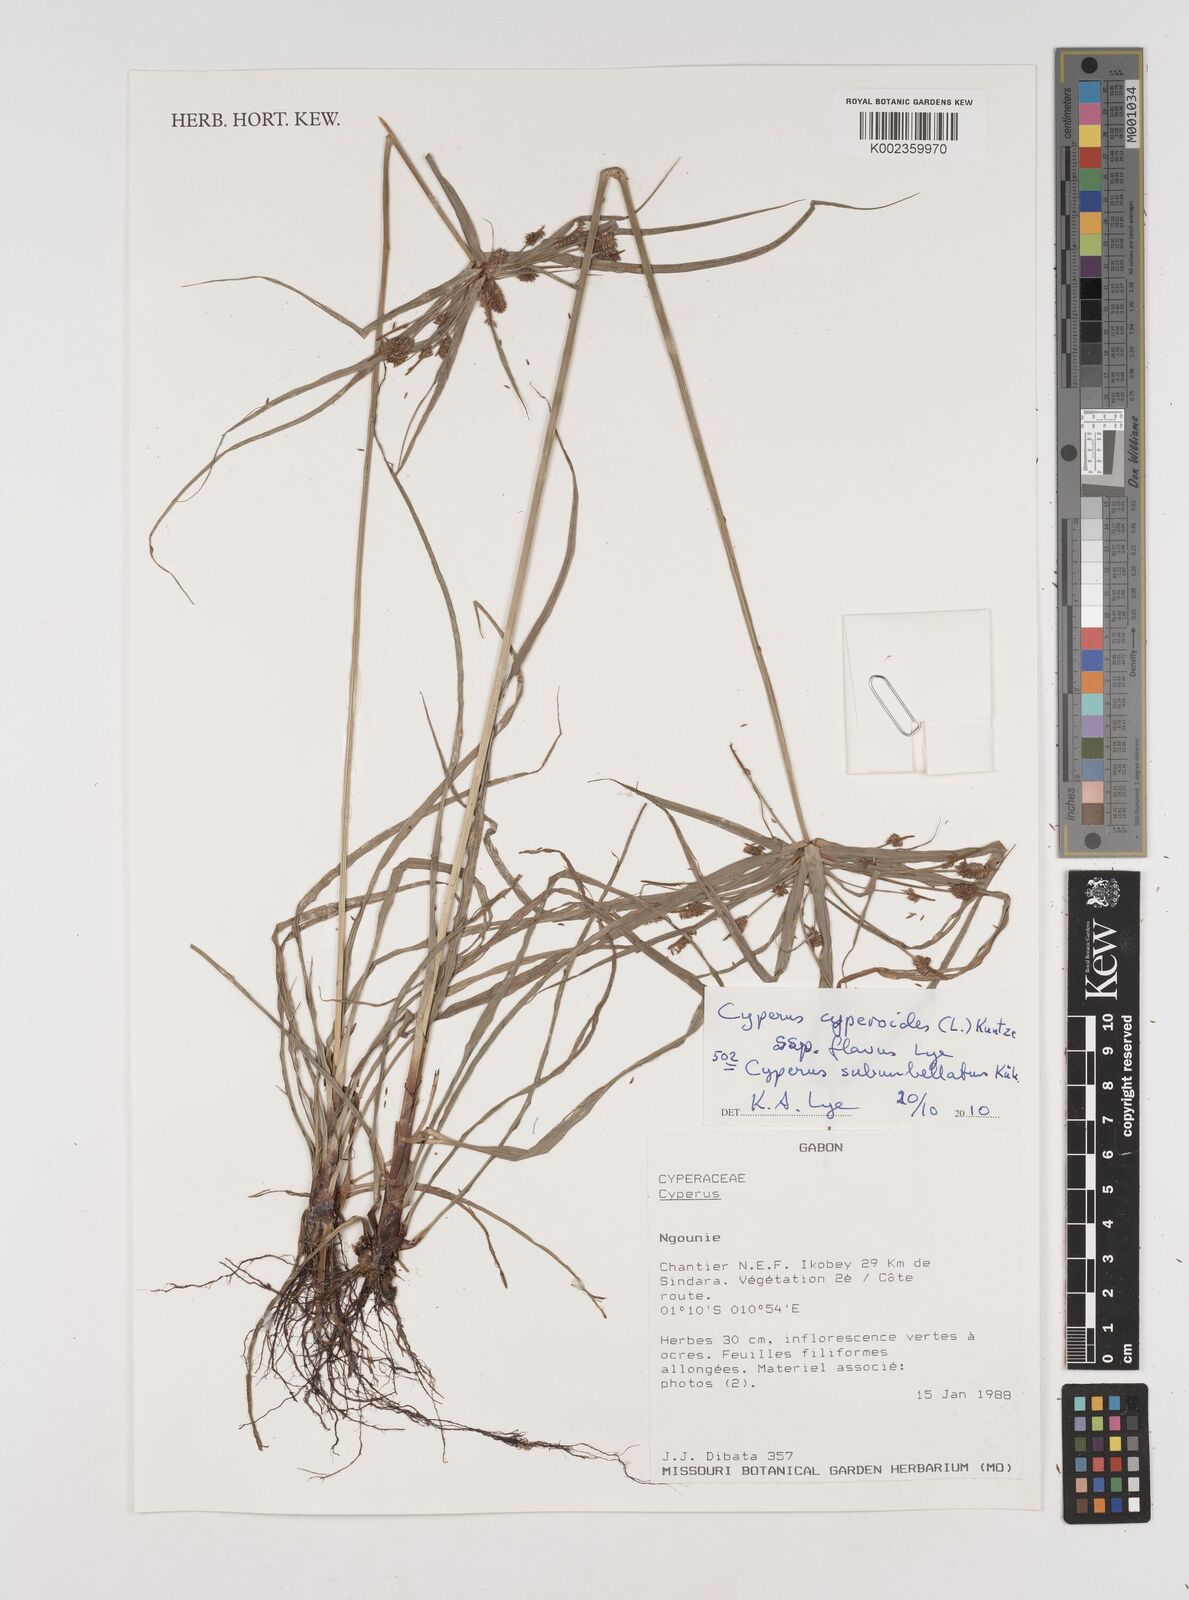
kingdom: Plantae
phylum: Tracheophyta
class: Liliopsida
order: Poales
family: Cyperaceae
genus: Cyperus
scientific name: Cyperus cyperoides
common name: Pacific island flat sedge
